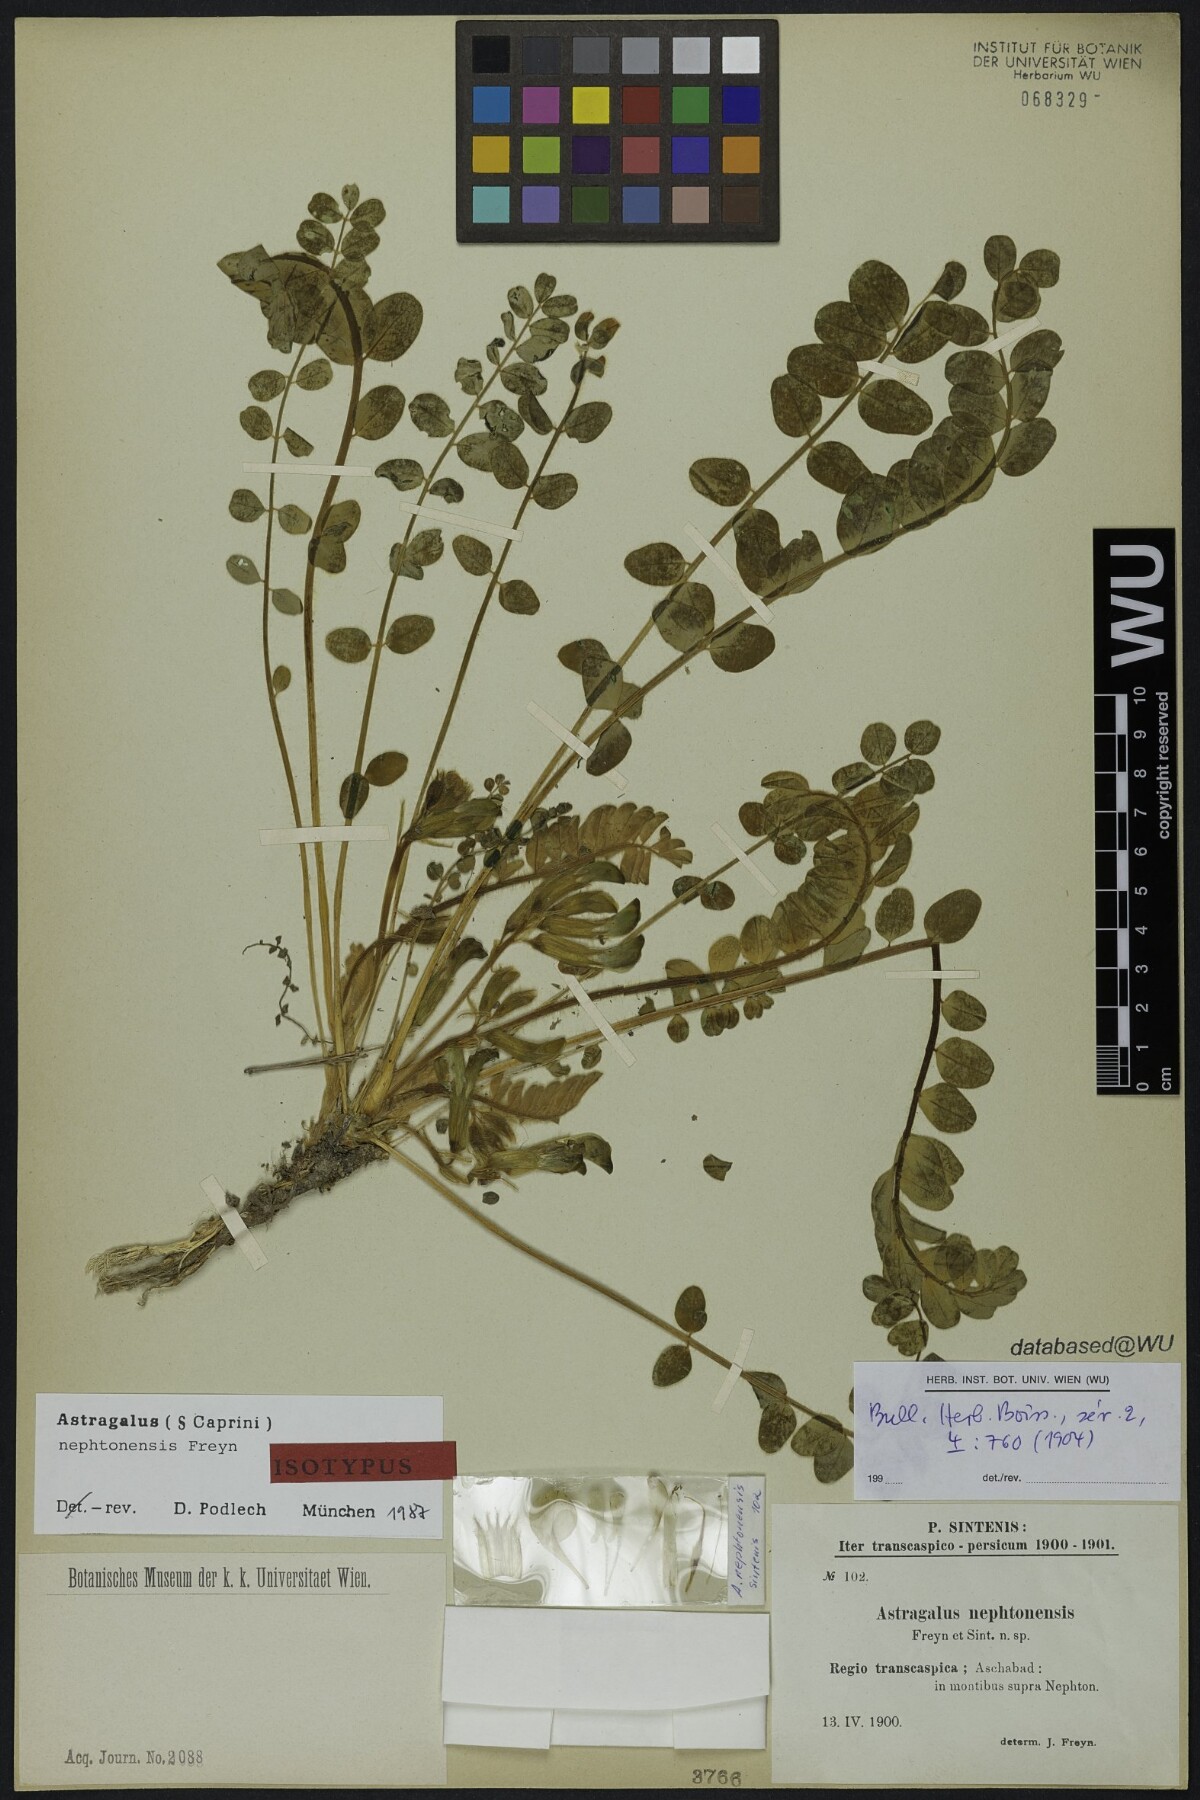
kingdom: Plantae
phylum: Tracheophyta
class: Magnoliopsida
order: Fabales
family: Fabaceae
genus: Astragalus
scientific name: Astragalus nephtonensis
